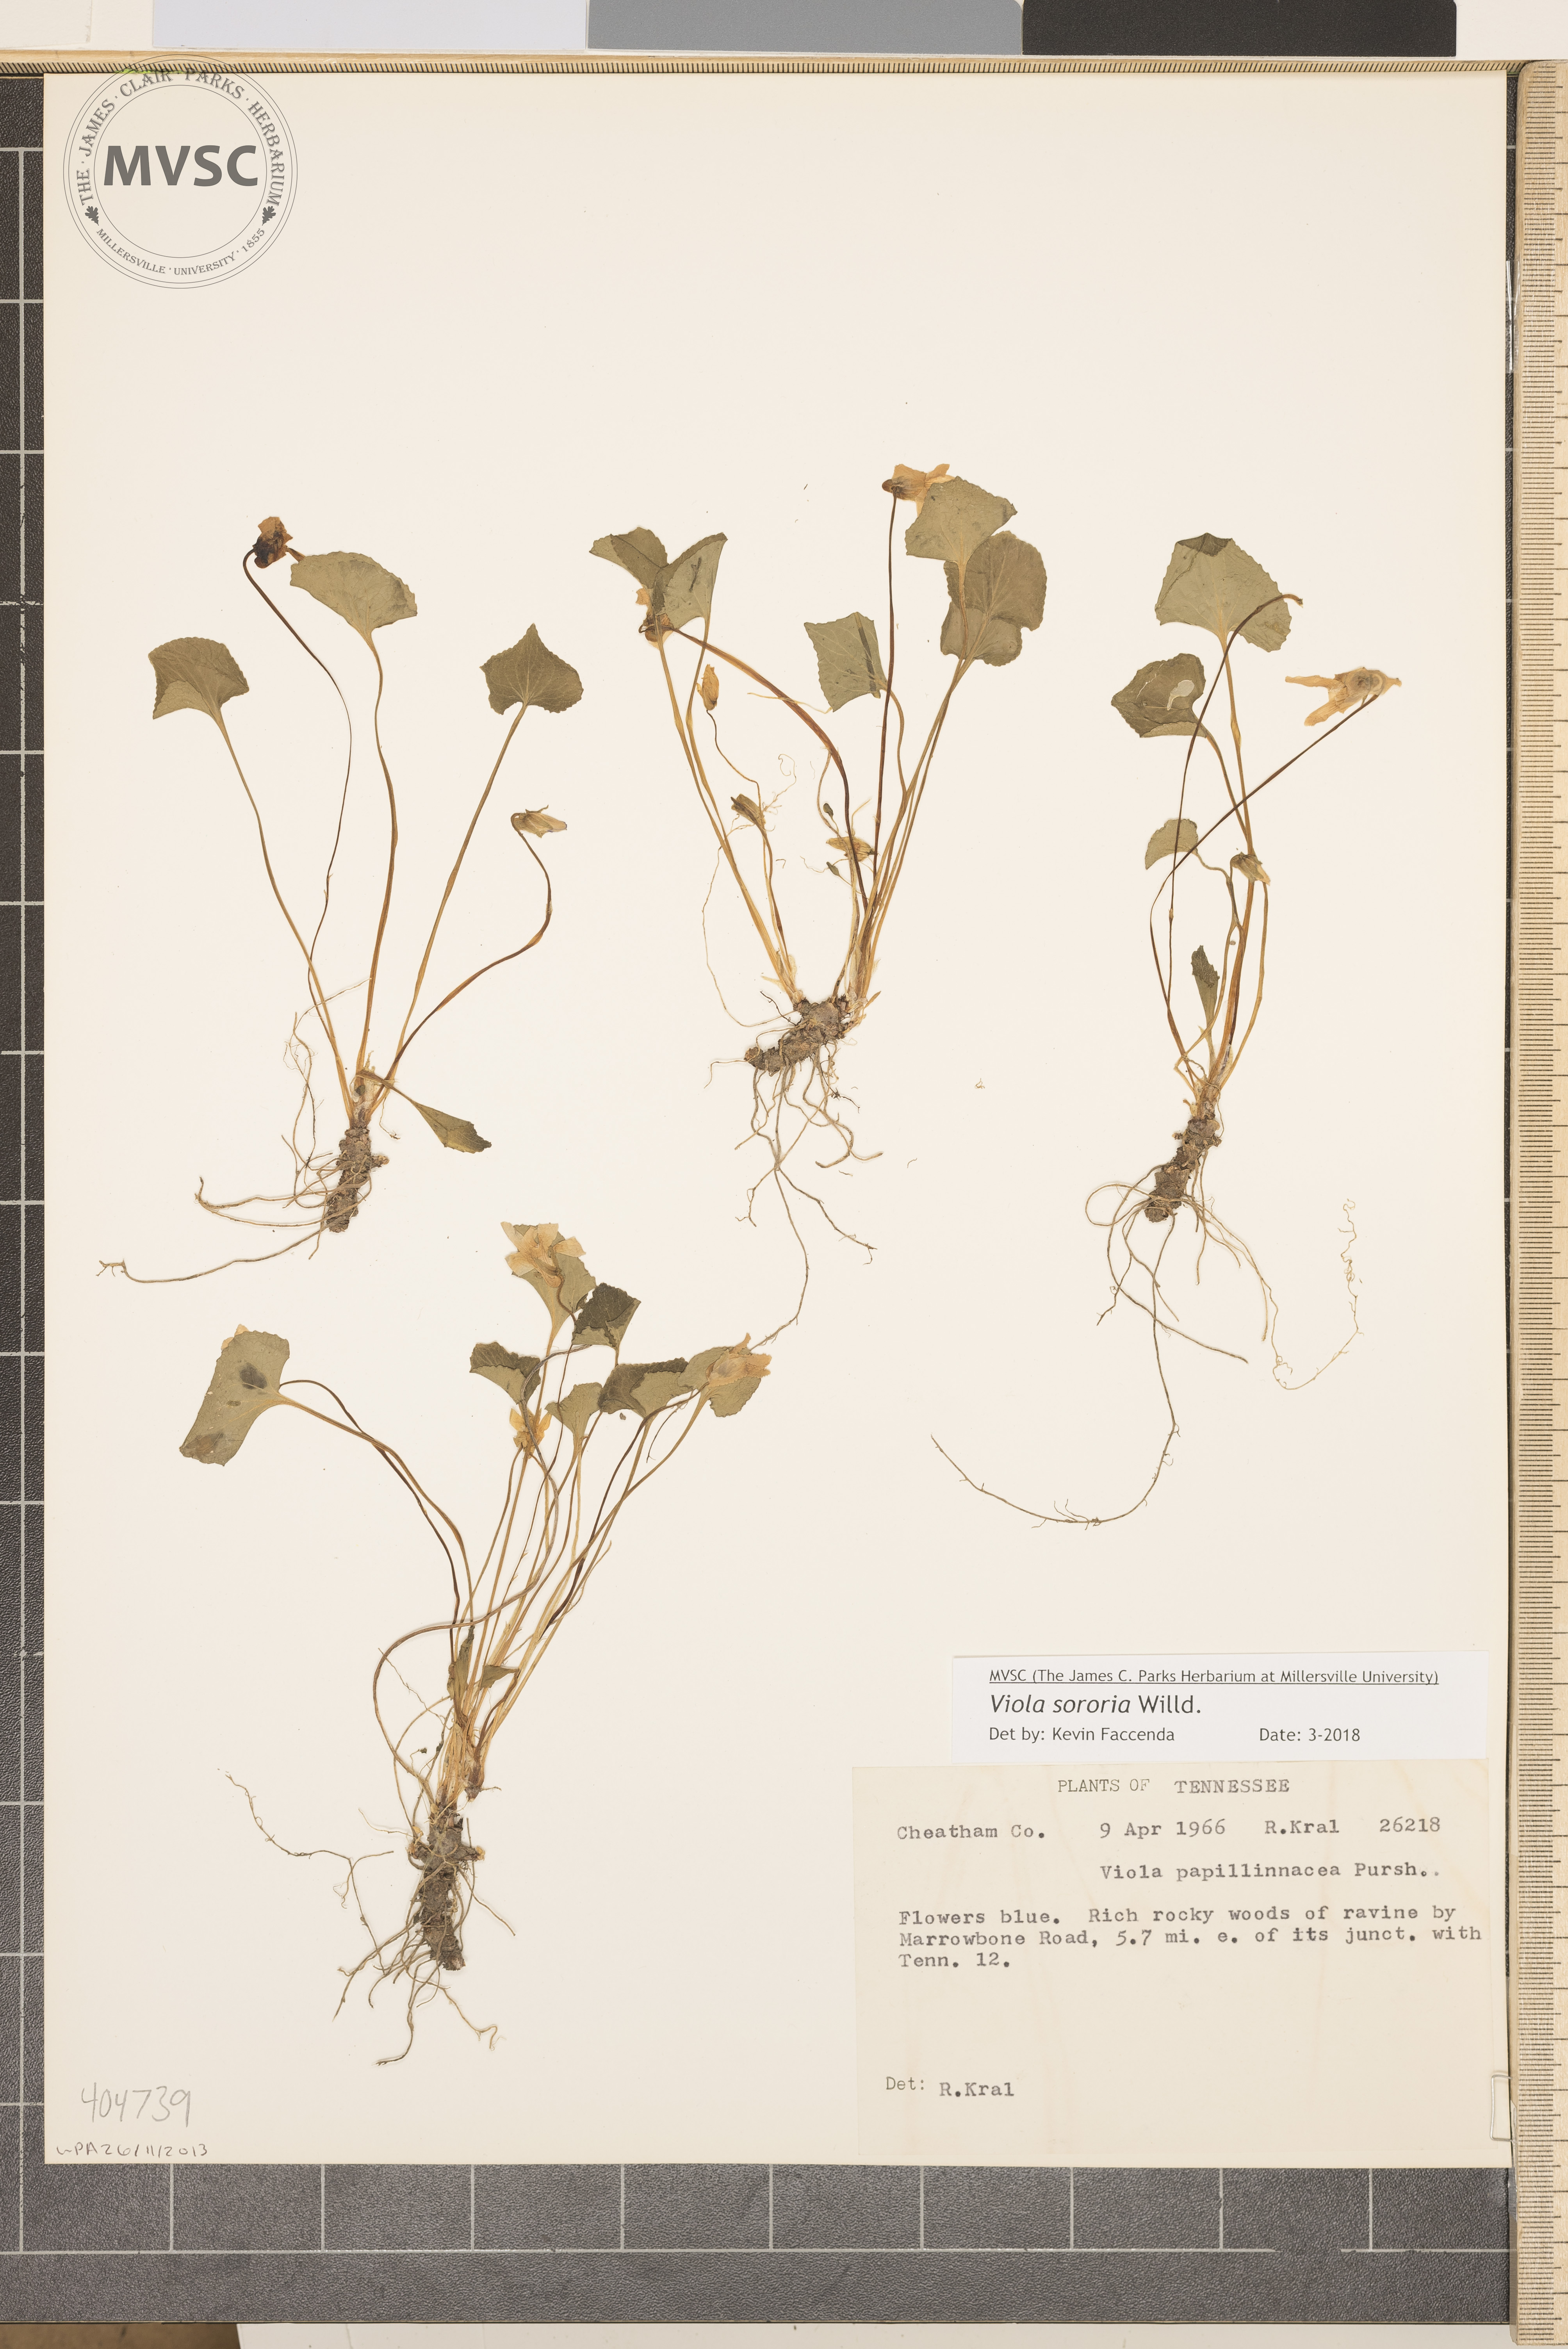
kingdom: Plantae
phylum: Tracheophyta
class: Magnoliopsida
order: Malpighiales
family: Violaceae
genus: Viola
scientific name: Viola sororia
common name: Dooryard violet
